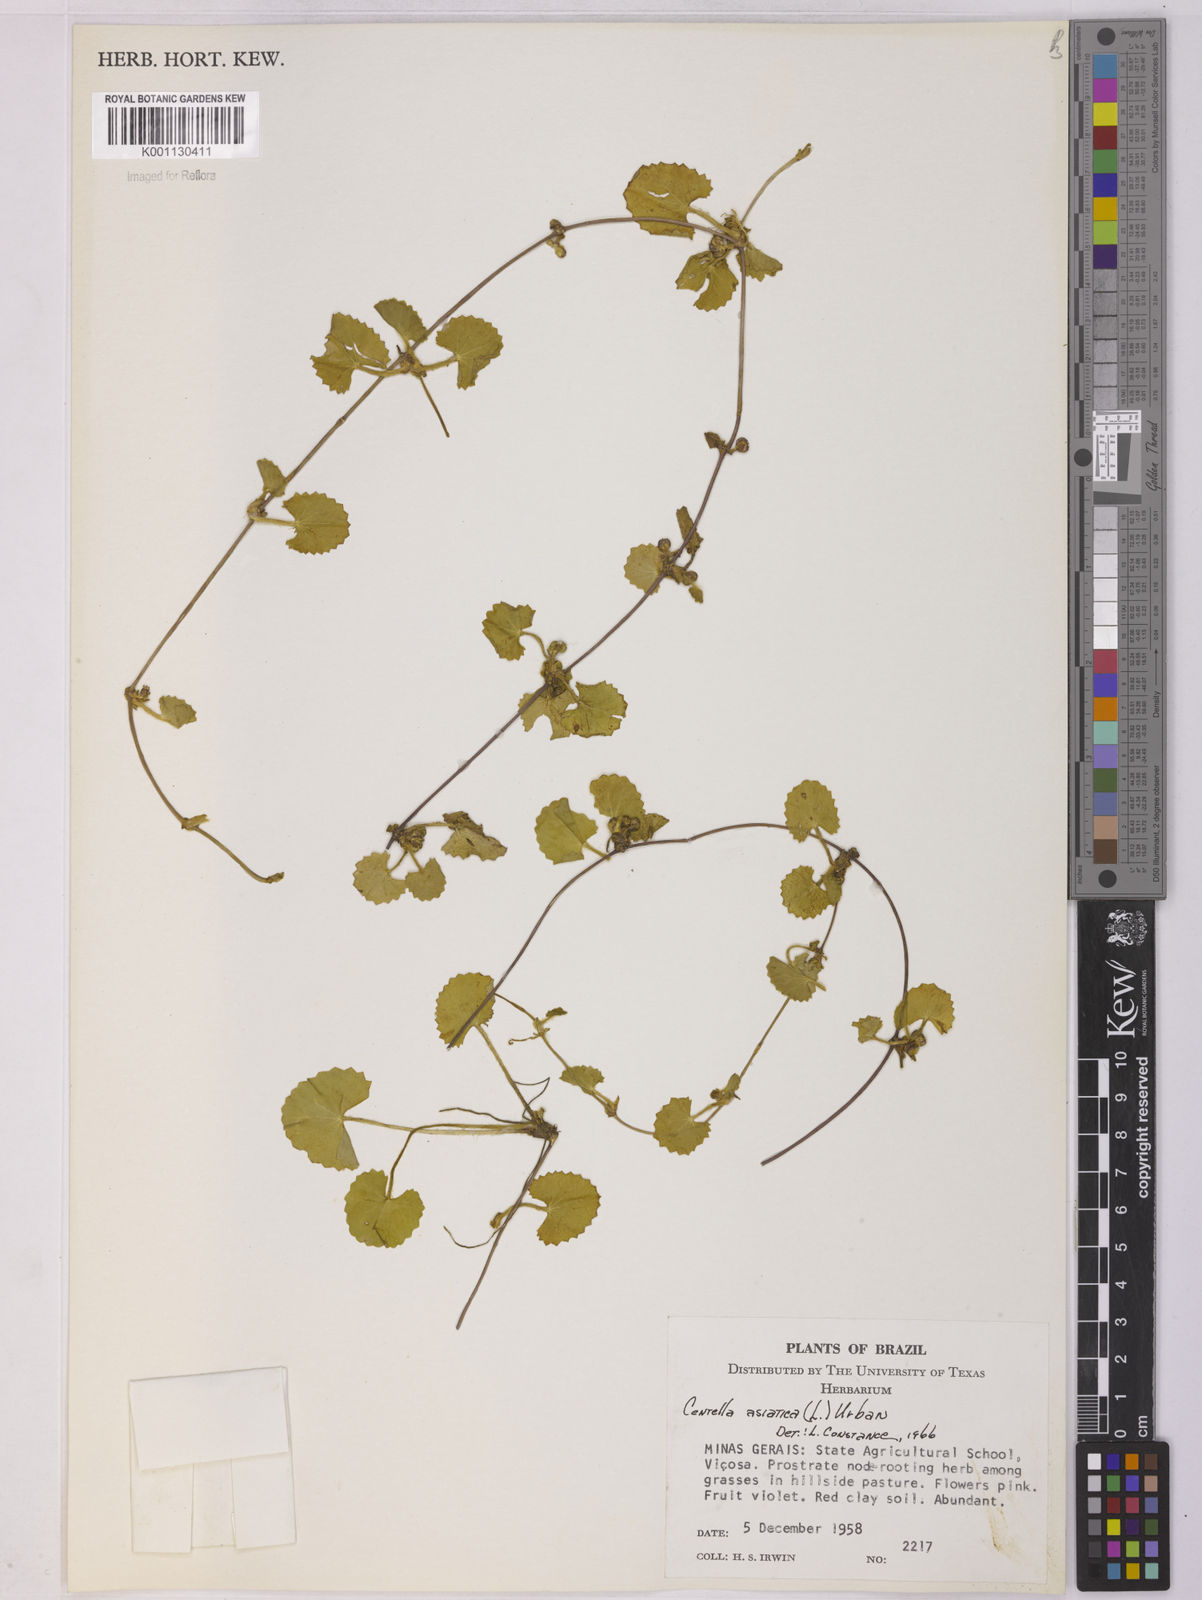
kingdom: Plantae
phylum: Tracheophyta
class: Magnoliopsida
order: Apiales
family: Apiaceae
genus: Centella
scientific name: Centella asiatica
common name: Spadeleaf
